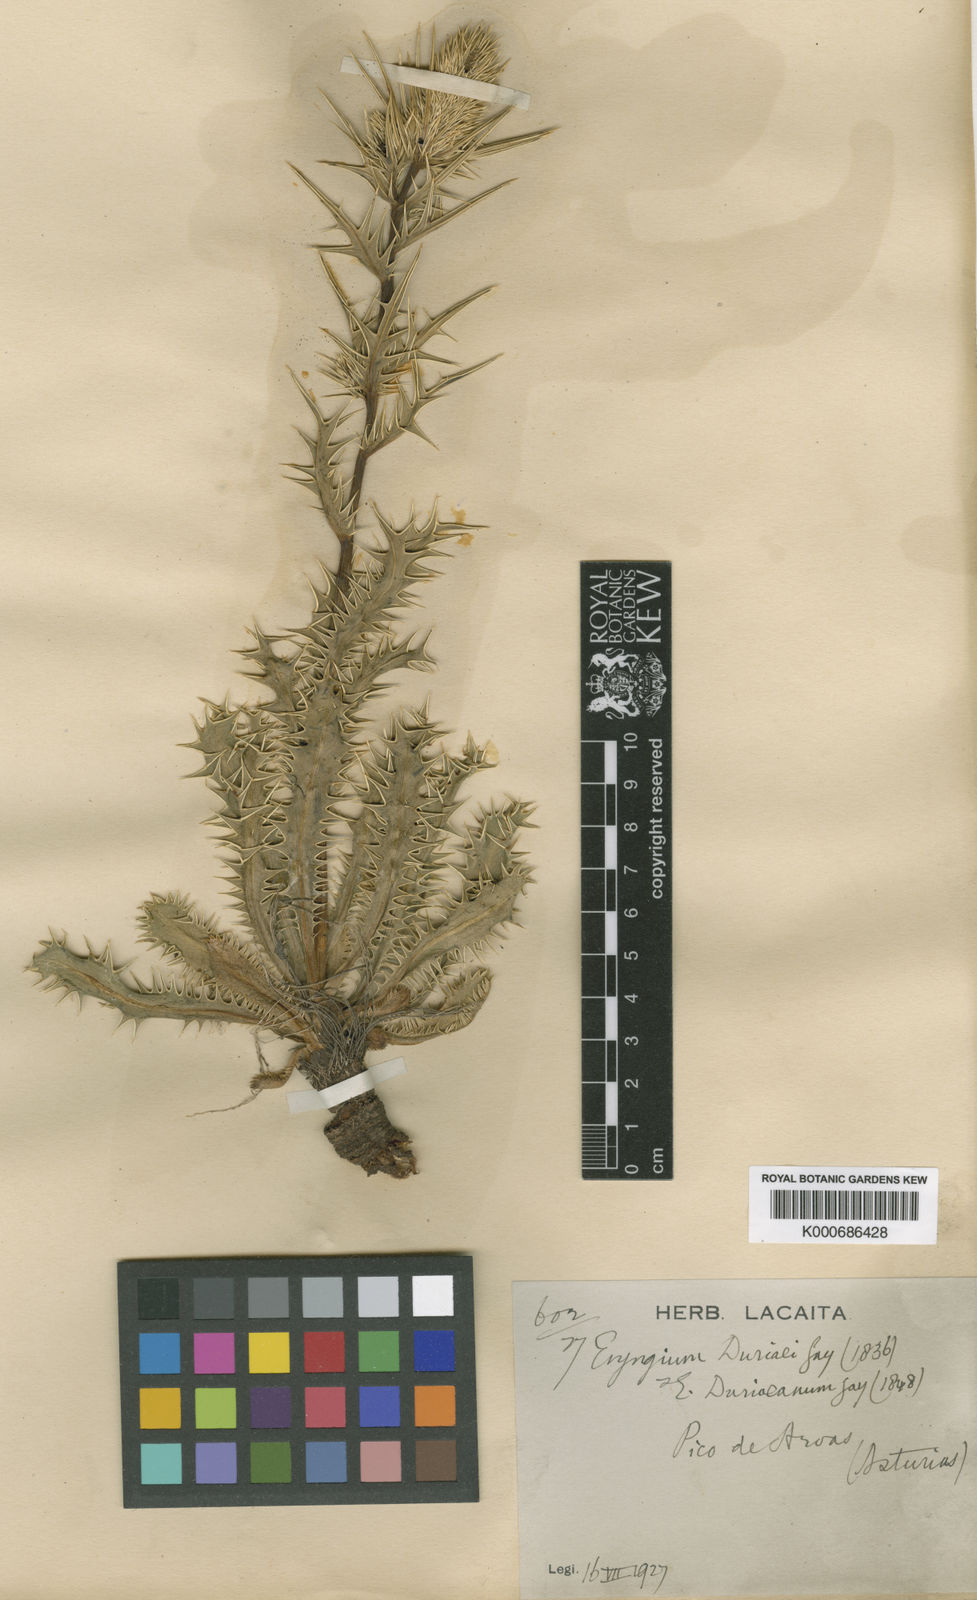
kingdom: Plantae
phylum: Tracheophyta
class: Magnoliopsida
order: Apiales
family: Apiaceae
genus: Eryngium
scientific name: Eryngium duriaei
